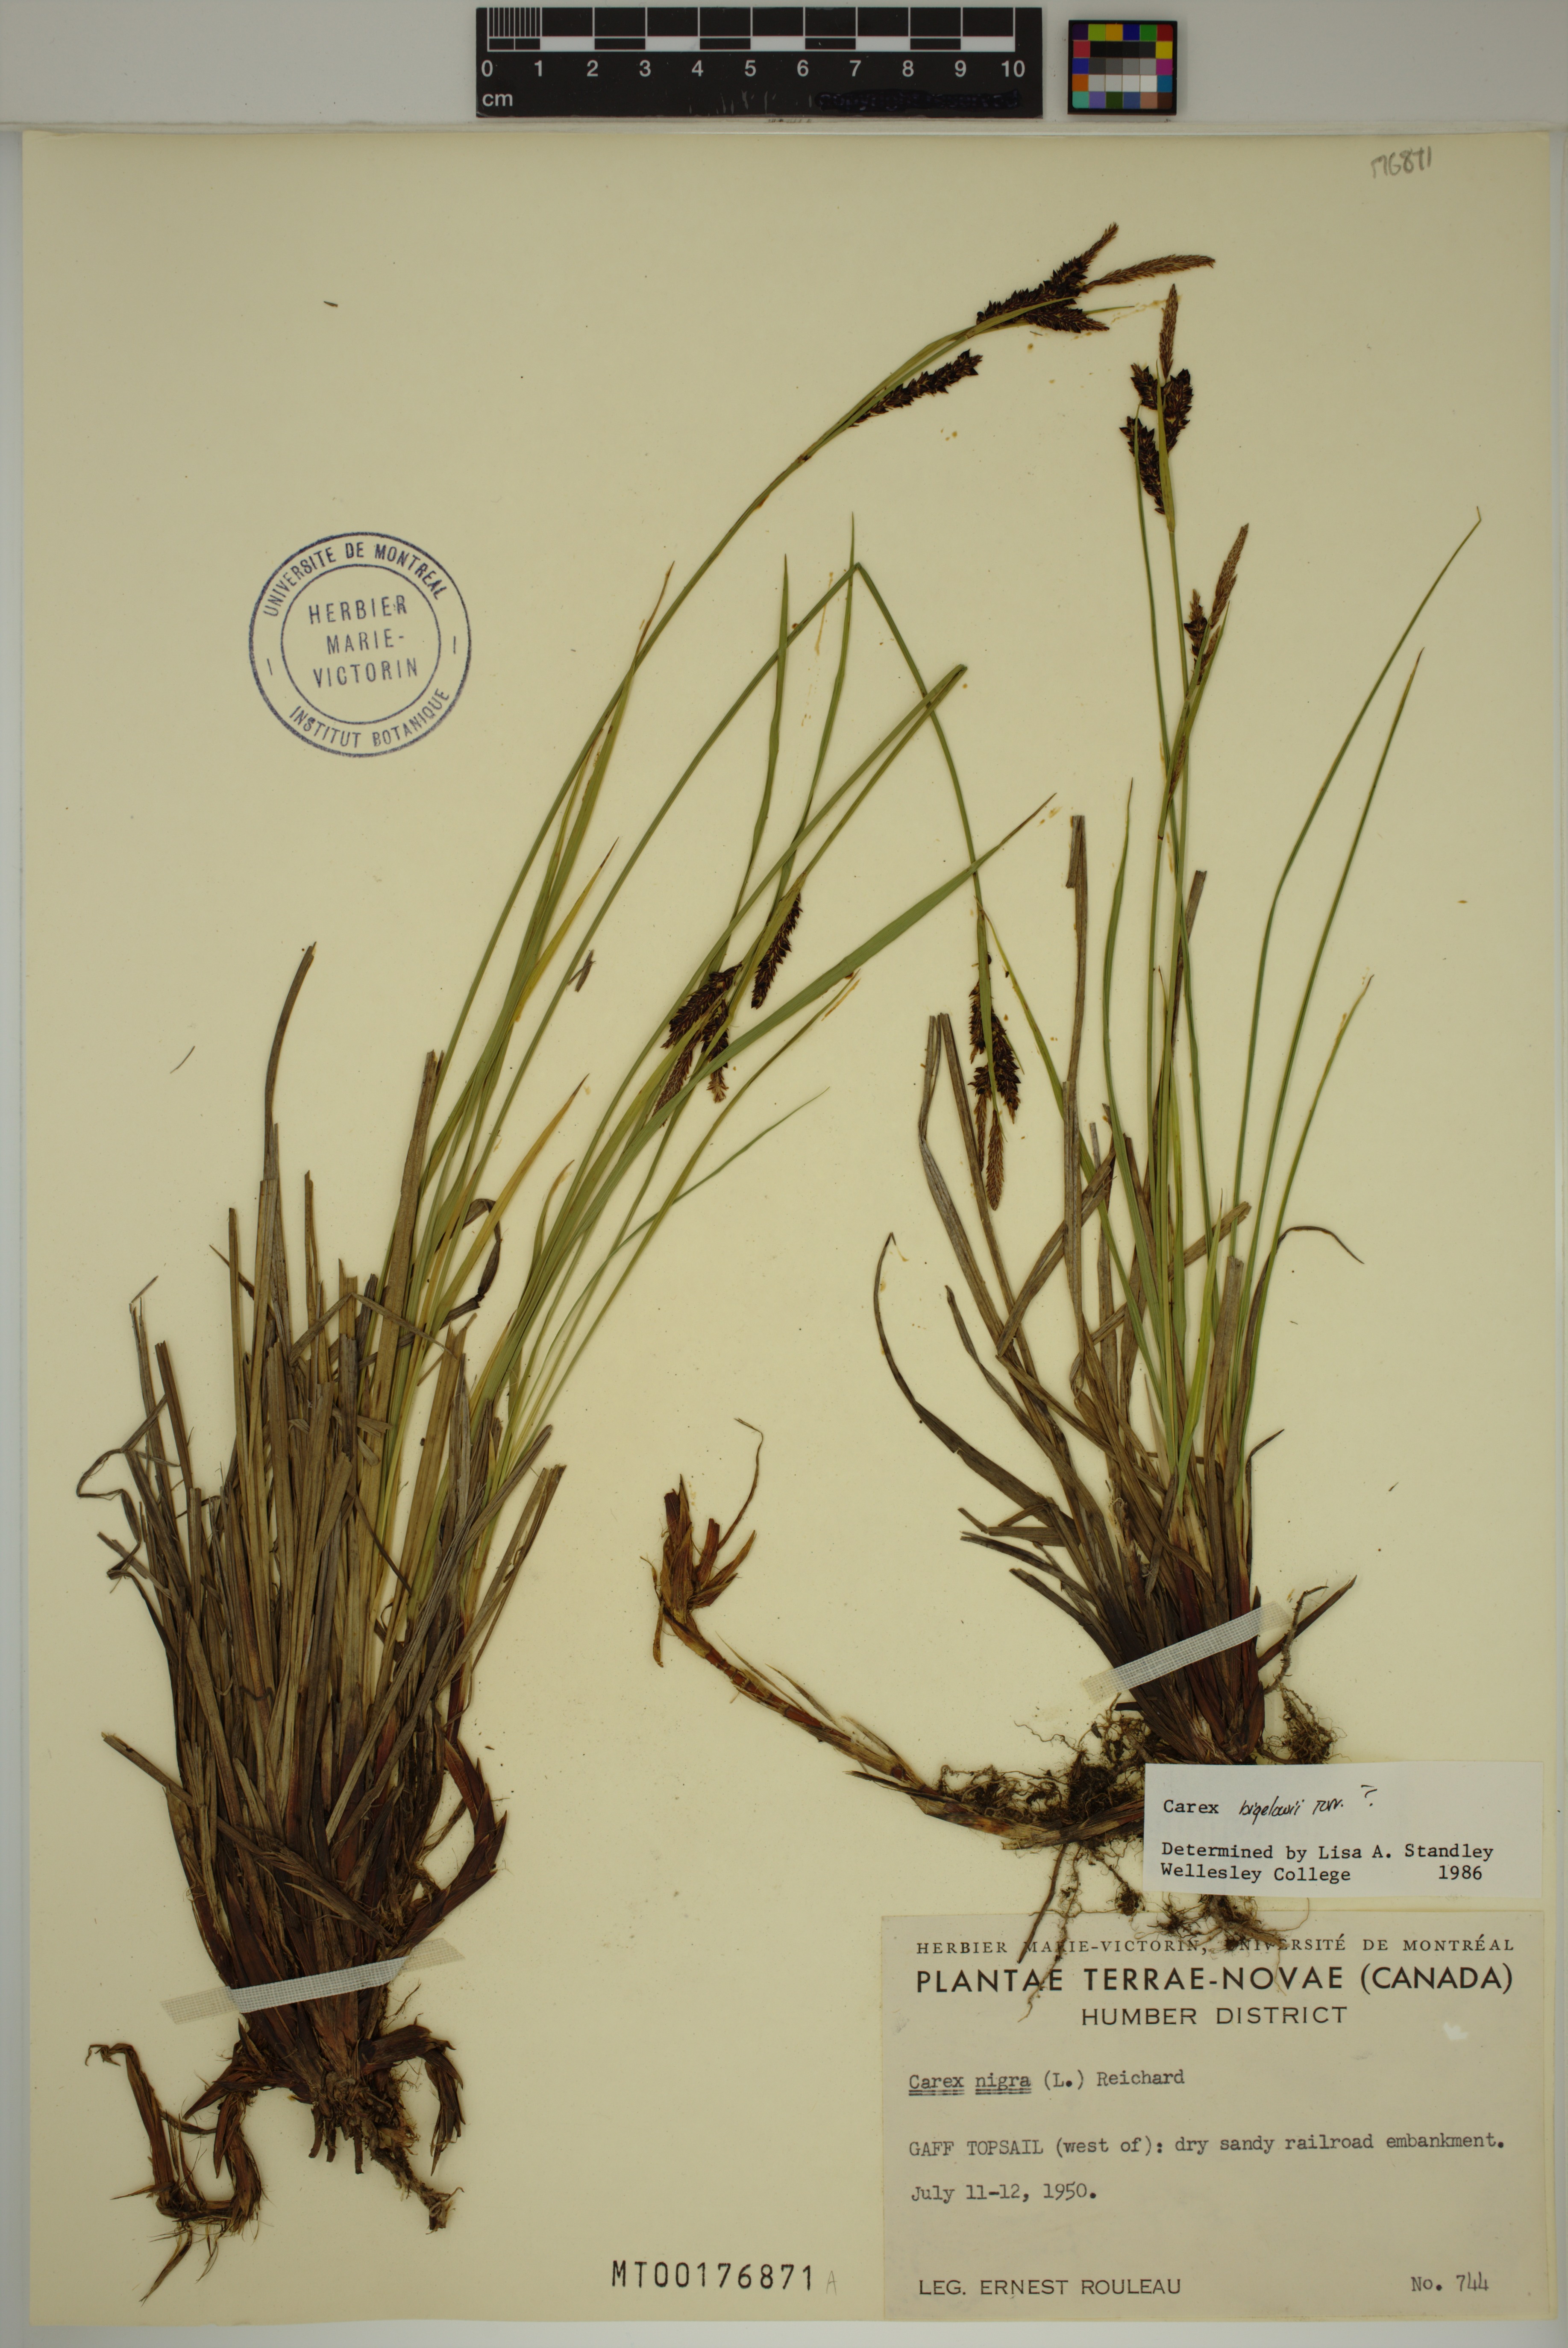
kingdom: Plantae
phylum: Tracheophyta
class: Liliopsida
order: Poales
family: Cyperaceae
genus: Carex
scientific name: Carex bigelowii
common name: Stiff sedge
